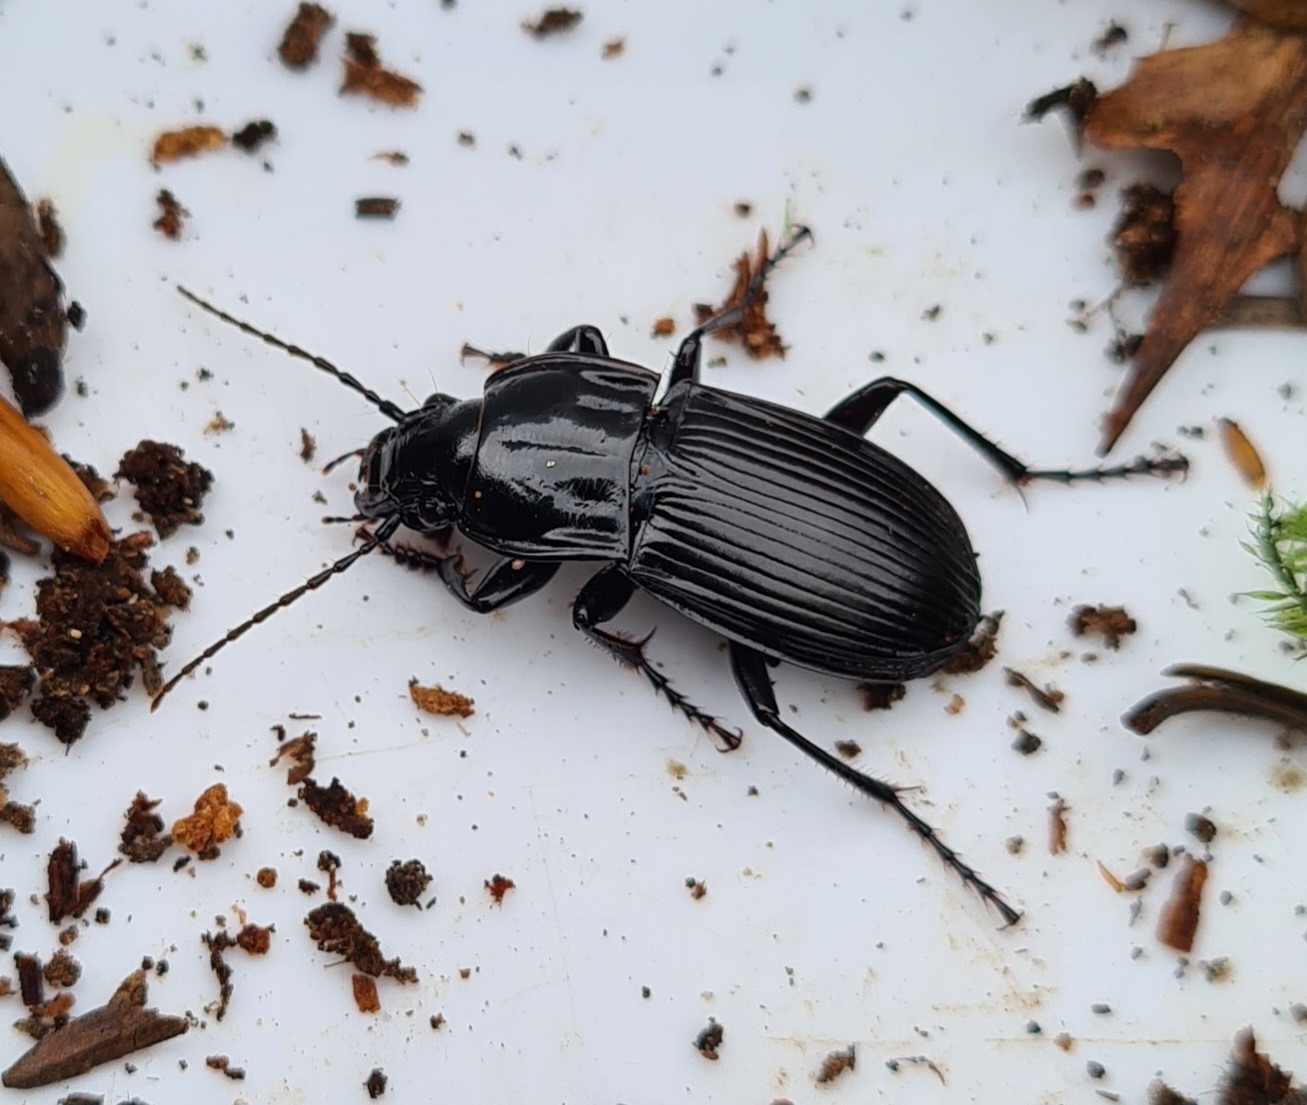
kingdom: Animalia
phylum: Arthropoda
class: Insecta
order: Coleoptera
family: Carabidae
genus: Abax
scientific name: Abax parallelepipedus
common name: Bred muldløber
